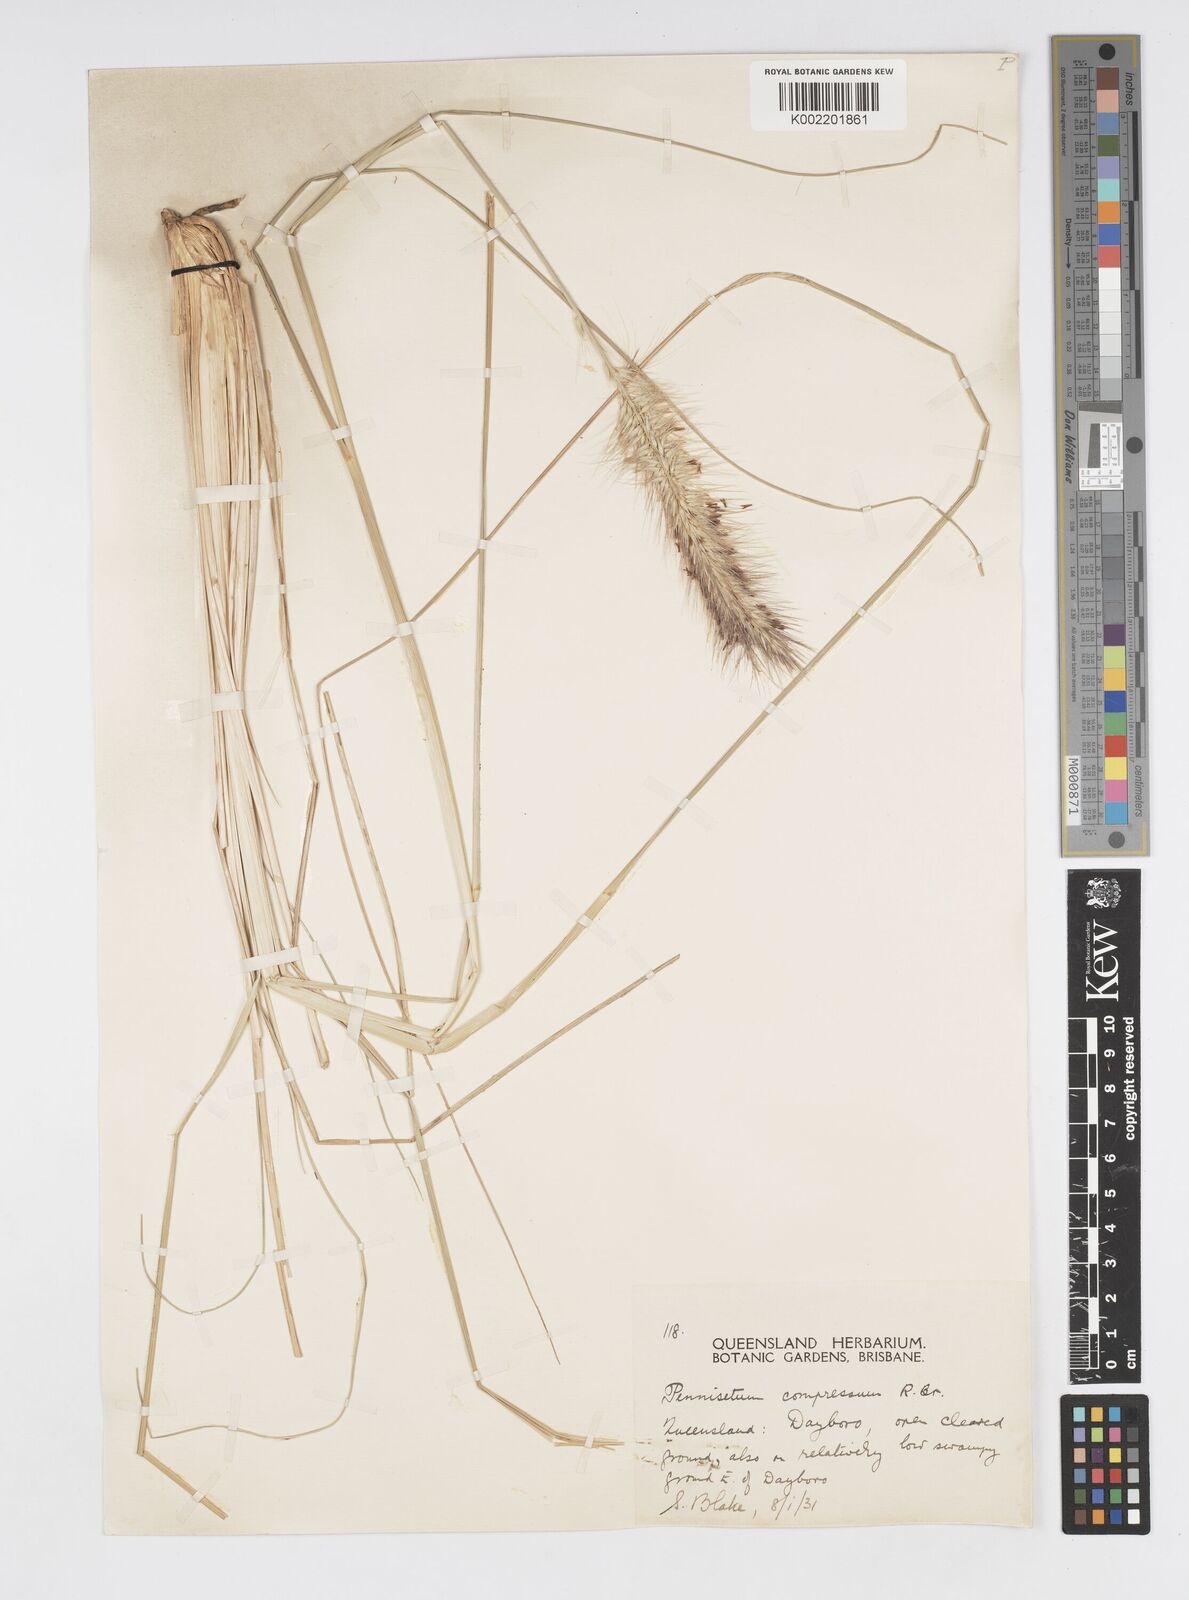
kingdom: Plantae
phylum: Tracheophyta
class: Liliopsida
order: Poales
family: Poaceae
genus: Cenchrus
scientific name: Cenchrus alopecuroides
